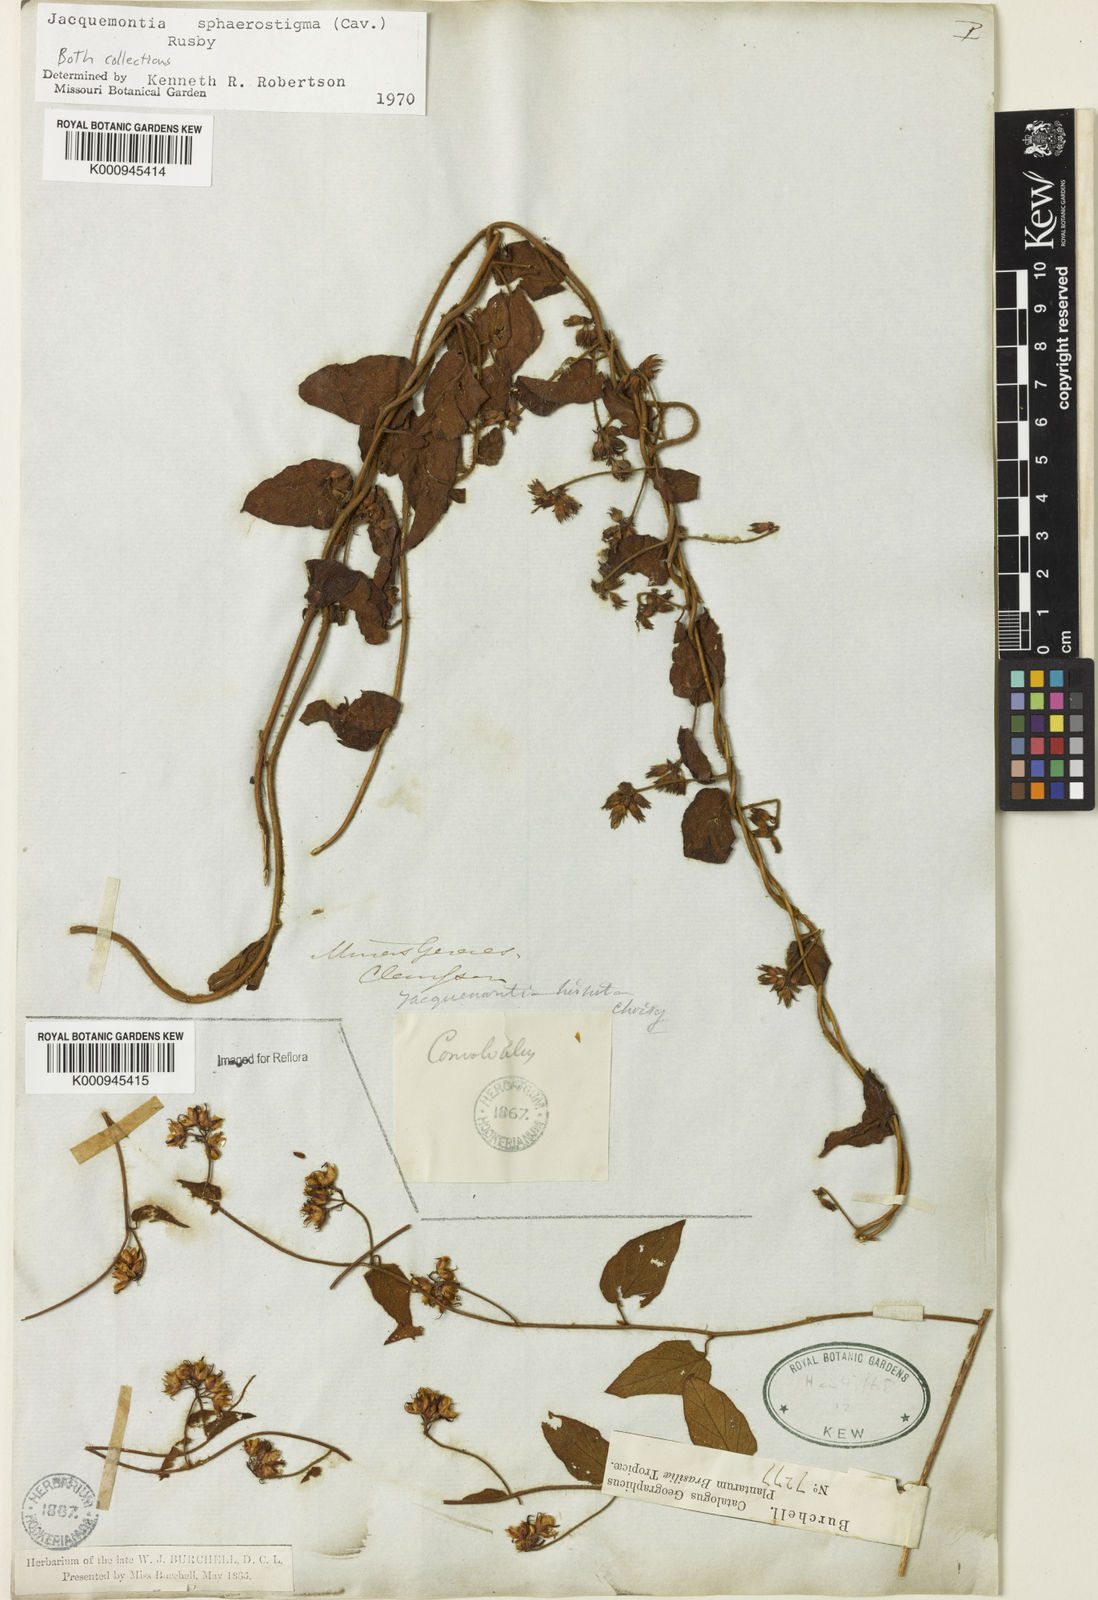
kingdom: Plantae
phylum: Tracheophyta
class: Magnoliopsida
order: Solanales
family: Convolvulaceae
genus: Jacquemontia
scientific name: Jacquemontia sphaerostigma
